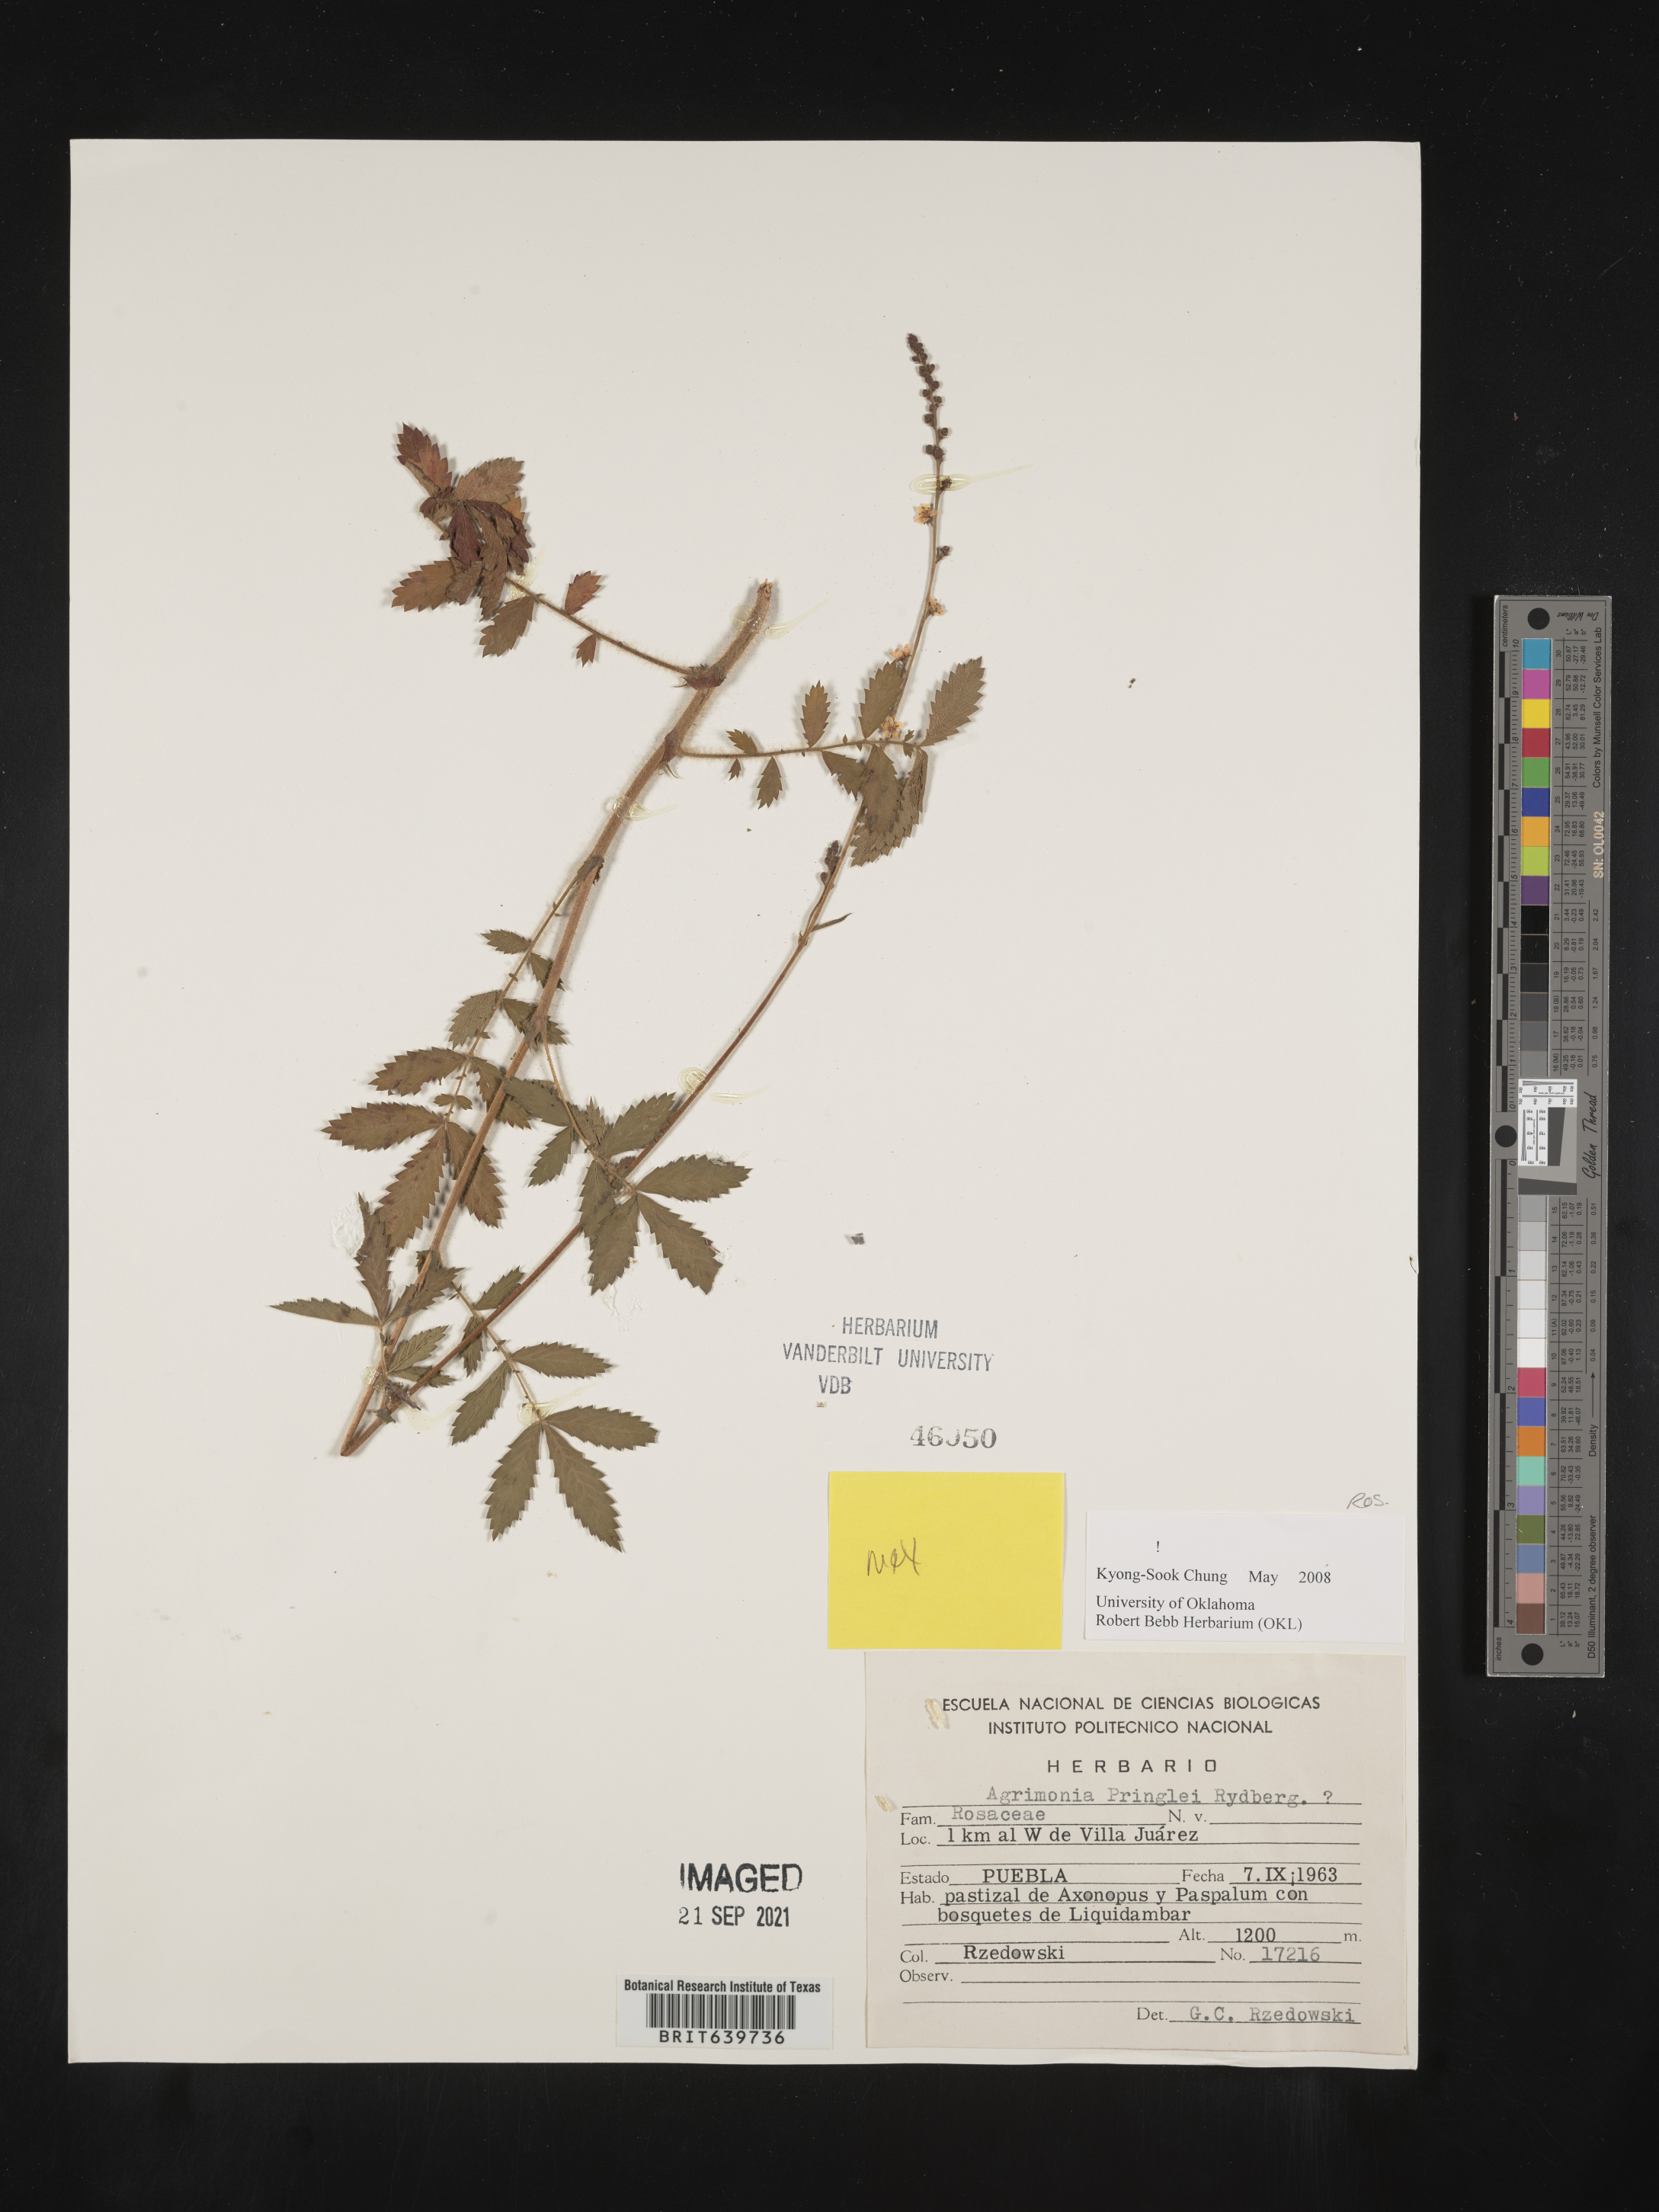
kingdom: Plantae
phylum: Tracheophyta
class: Magnoliopsida
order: Rosales
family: Rosaceae
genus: Agrimonia
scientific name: Agrimonia
